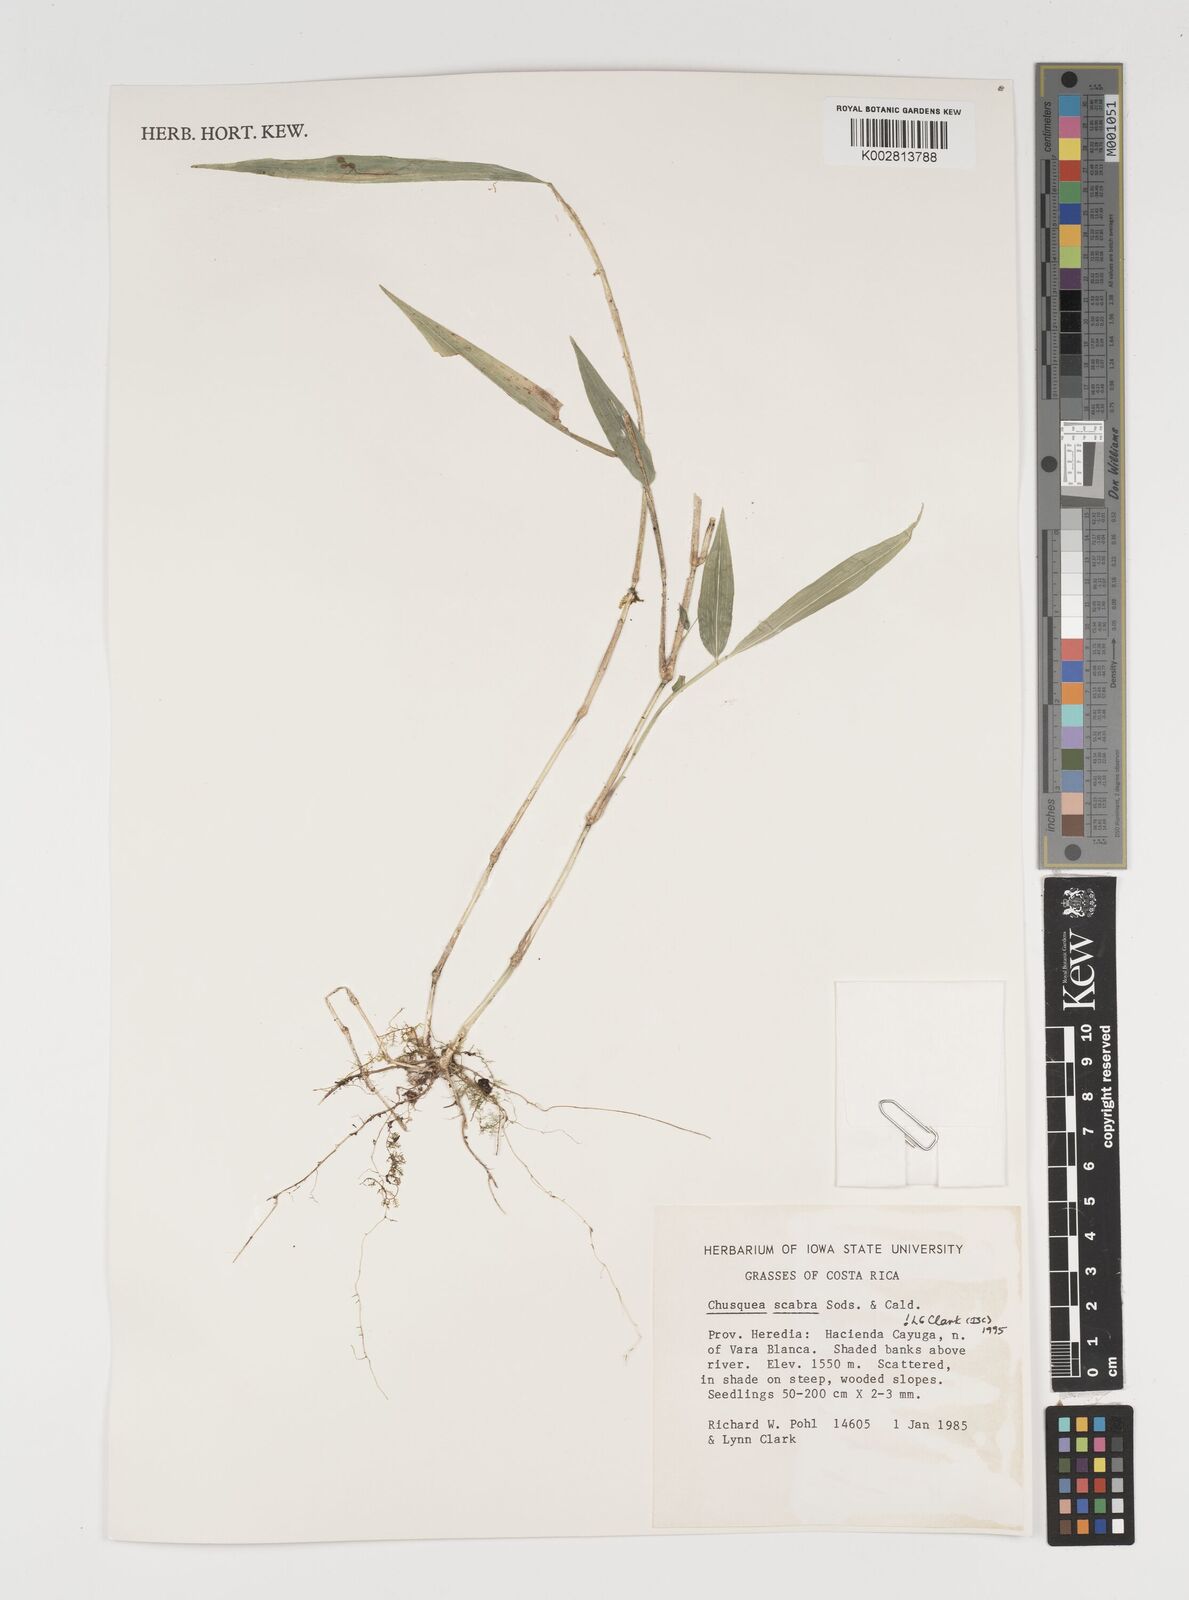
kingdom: Plantae
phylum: Tracheophyta
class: Liliopsida
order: Poales
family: Poaceae
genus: Chusquea
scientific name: Chusquea scabra
